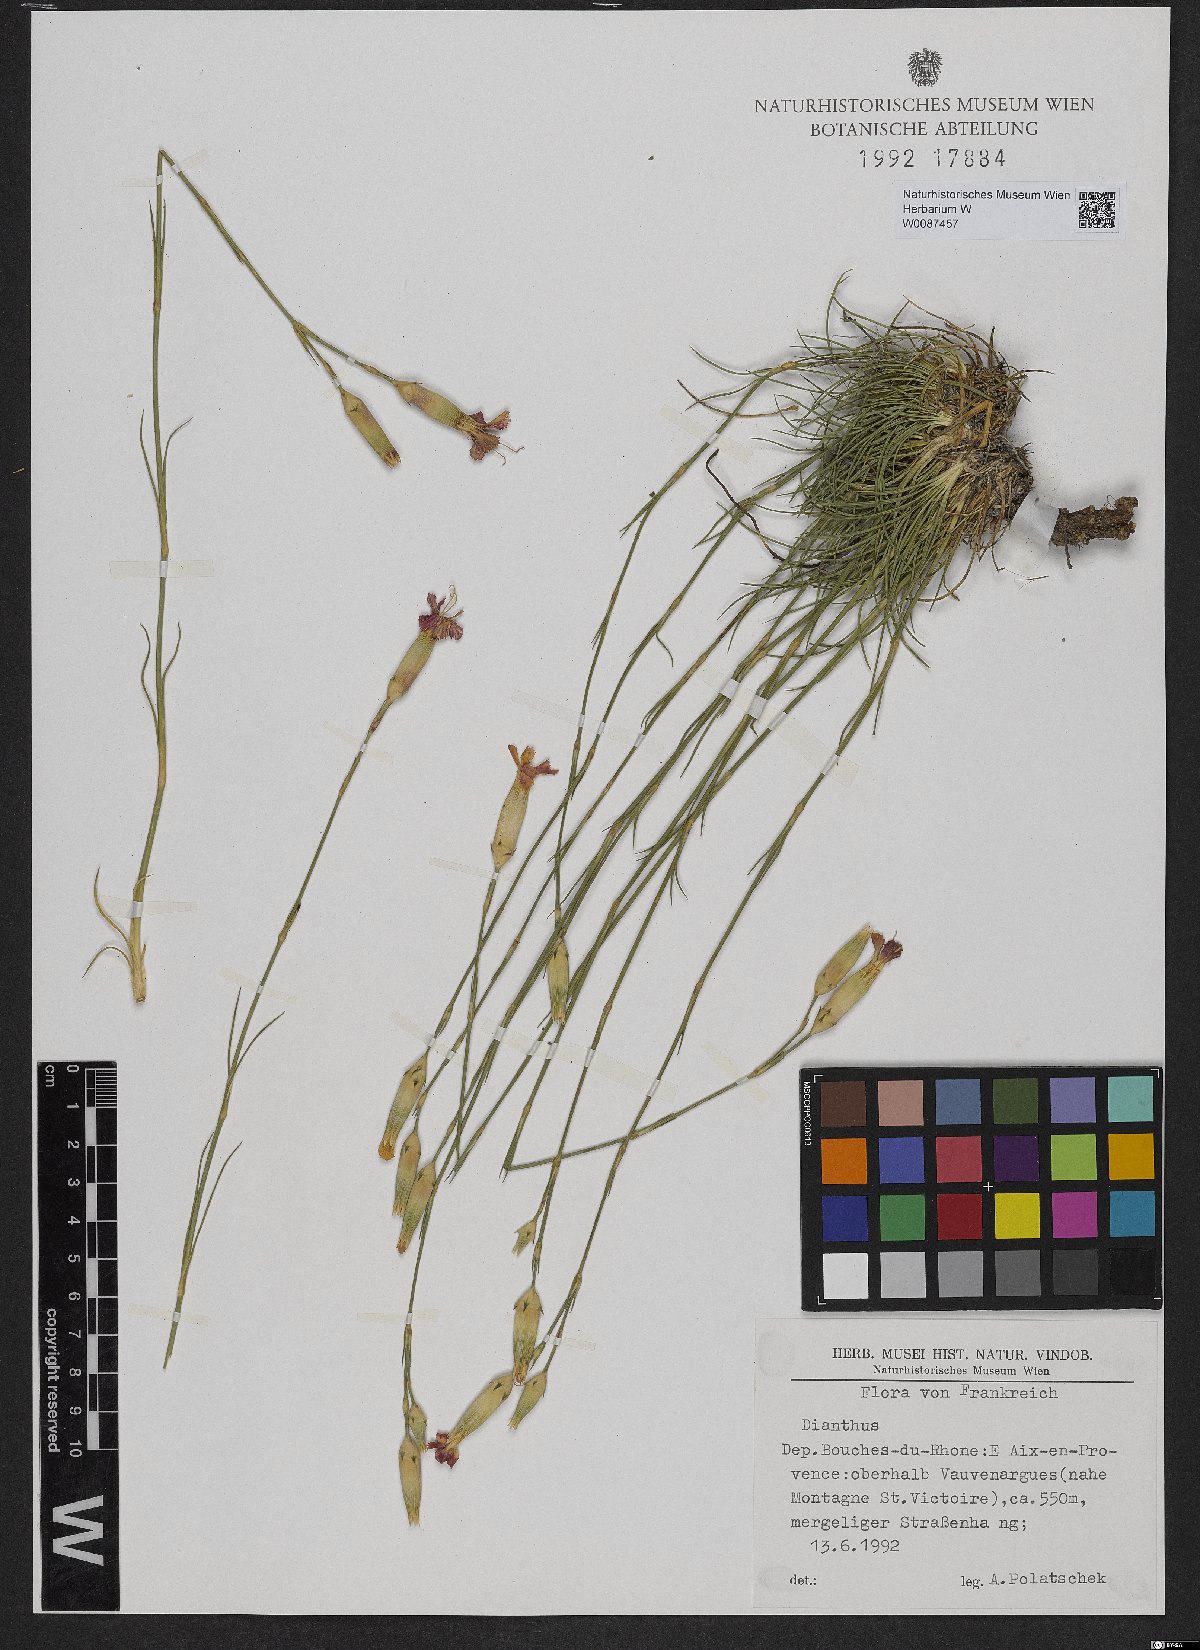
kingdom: Plantae
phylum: Tracheophyta
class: Magnoliopsida
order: Caryophyllales
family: Caryophyllaceae
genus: Dianthus
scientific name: Dianthus
